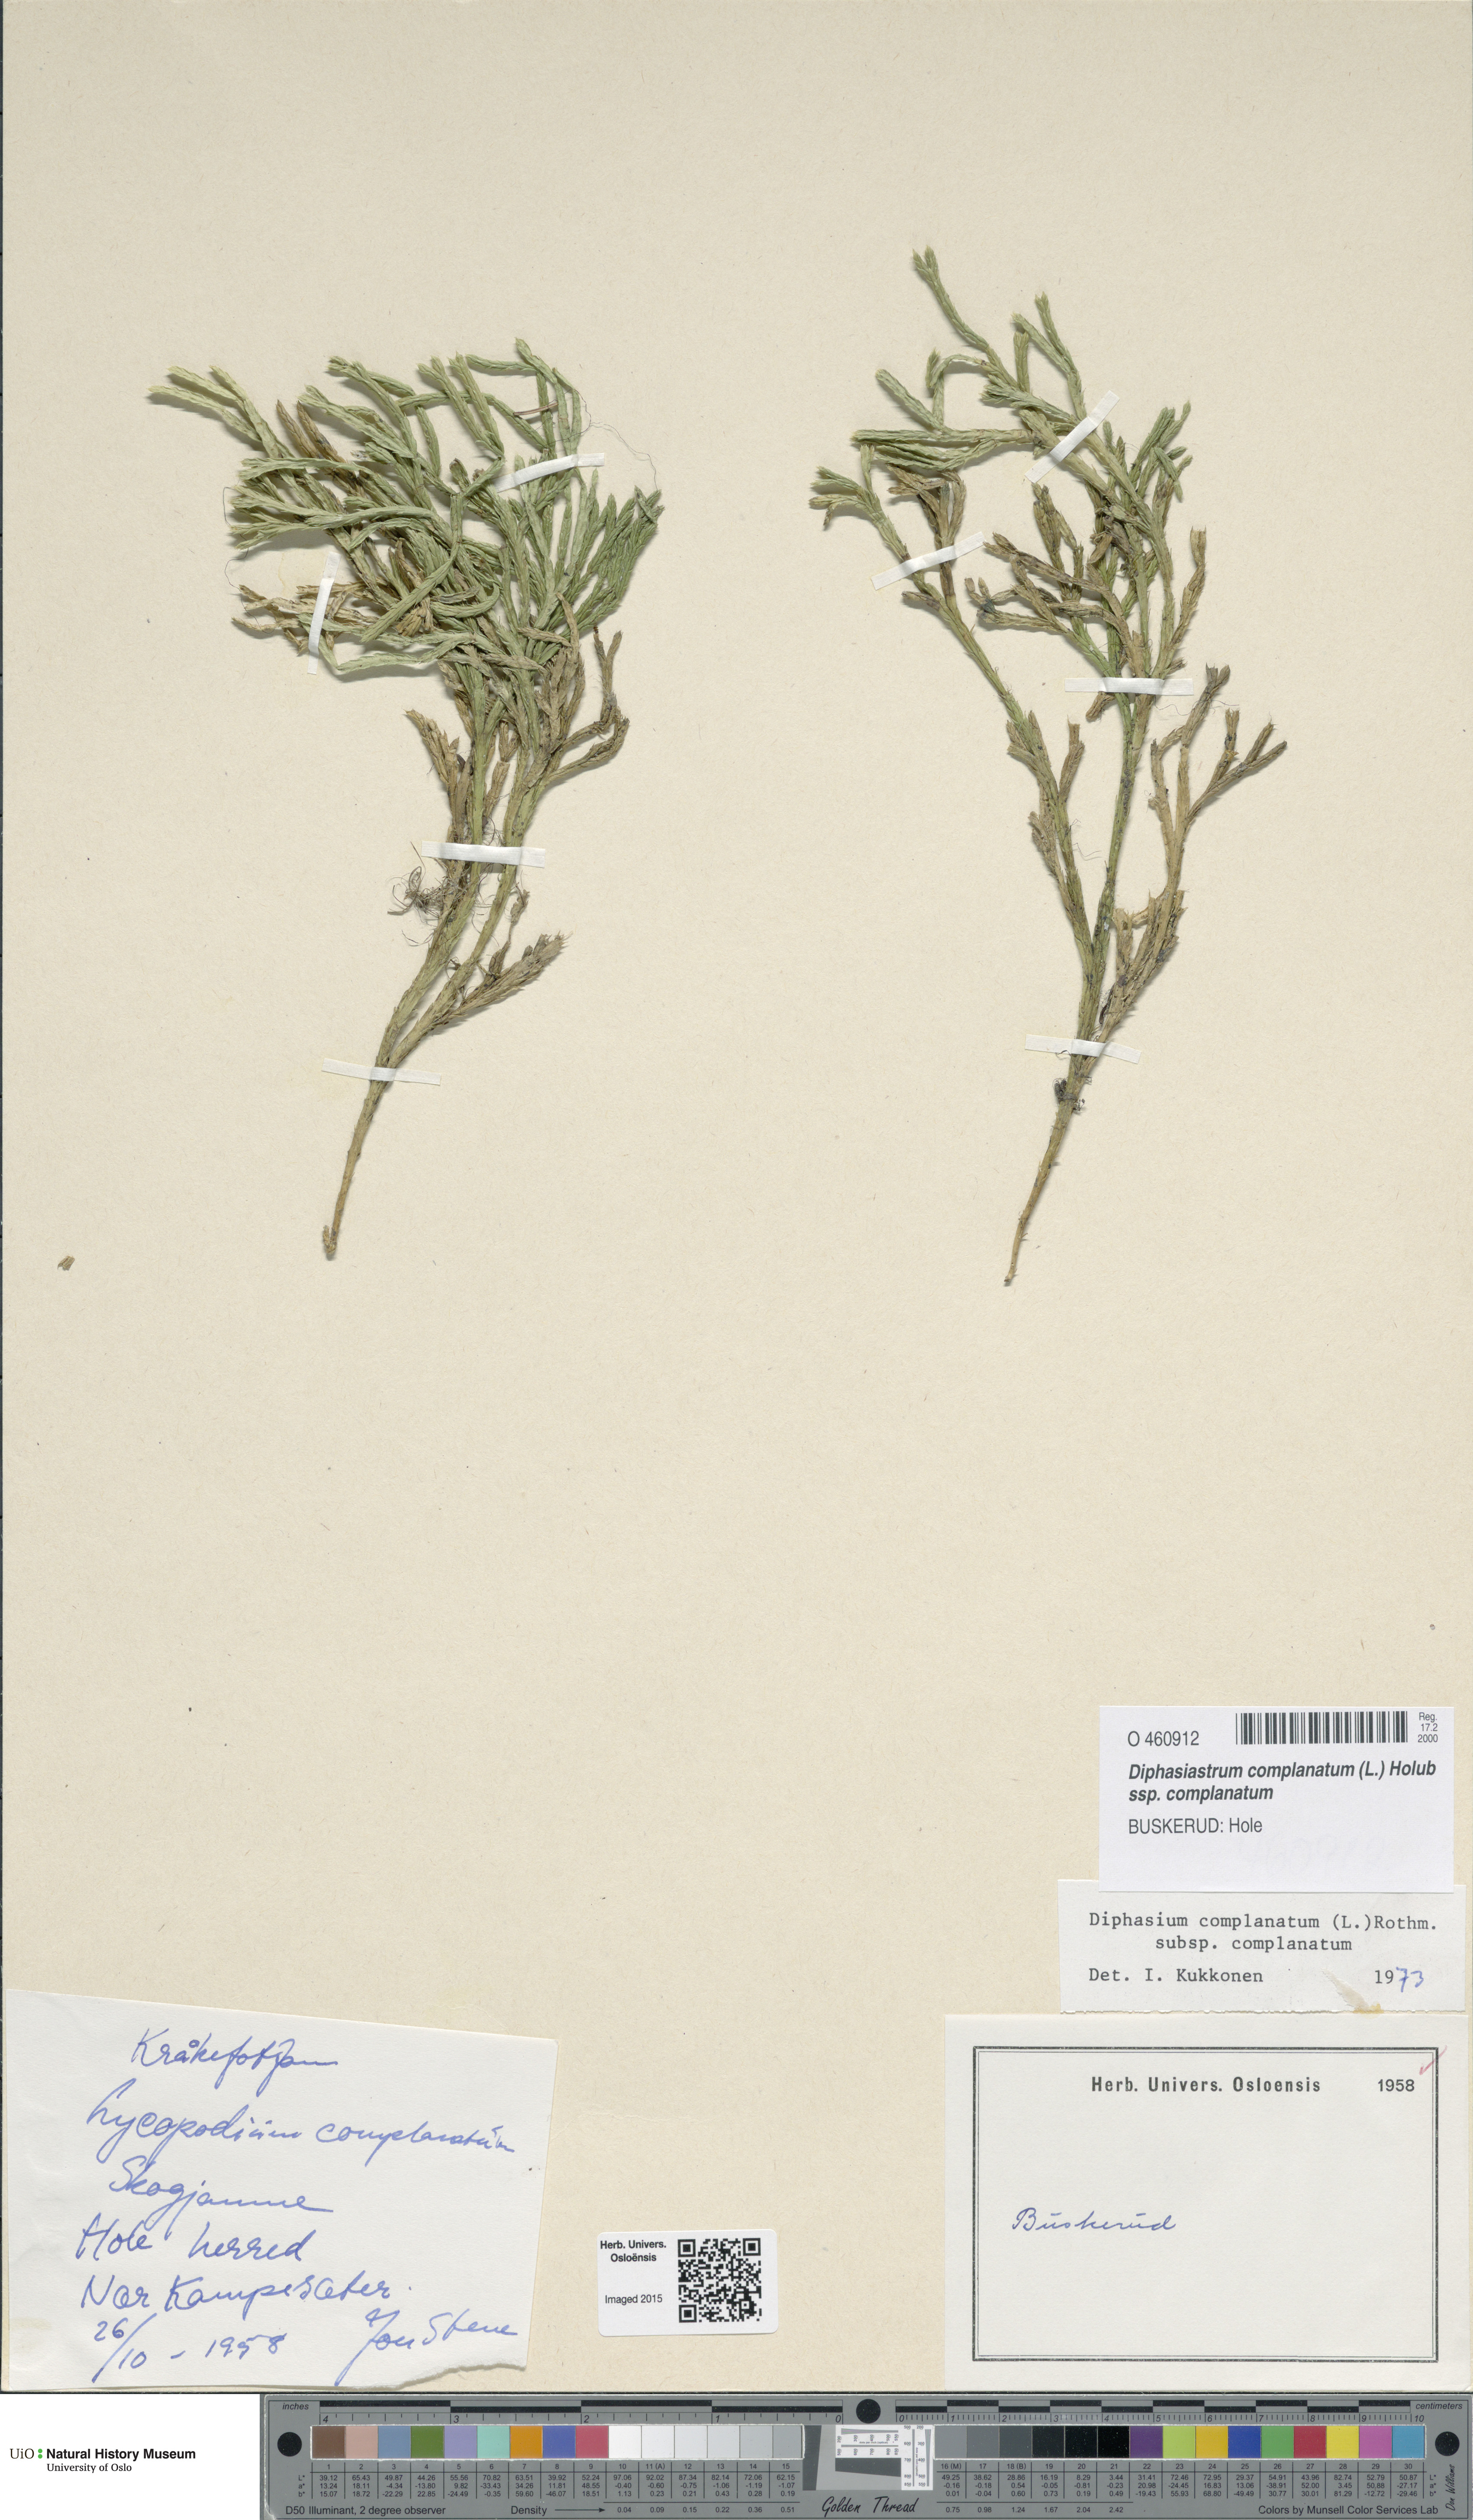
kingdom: Plantae
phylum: Tracheophyta
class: Lycopodiopsida
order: Lycopodiales
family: Lycopodiaceae
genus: Diphasiastrum
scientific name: Diphasiastrum complanatum
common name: Northern running-pine
